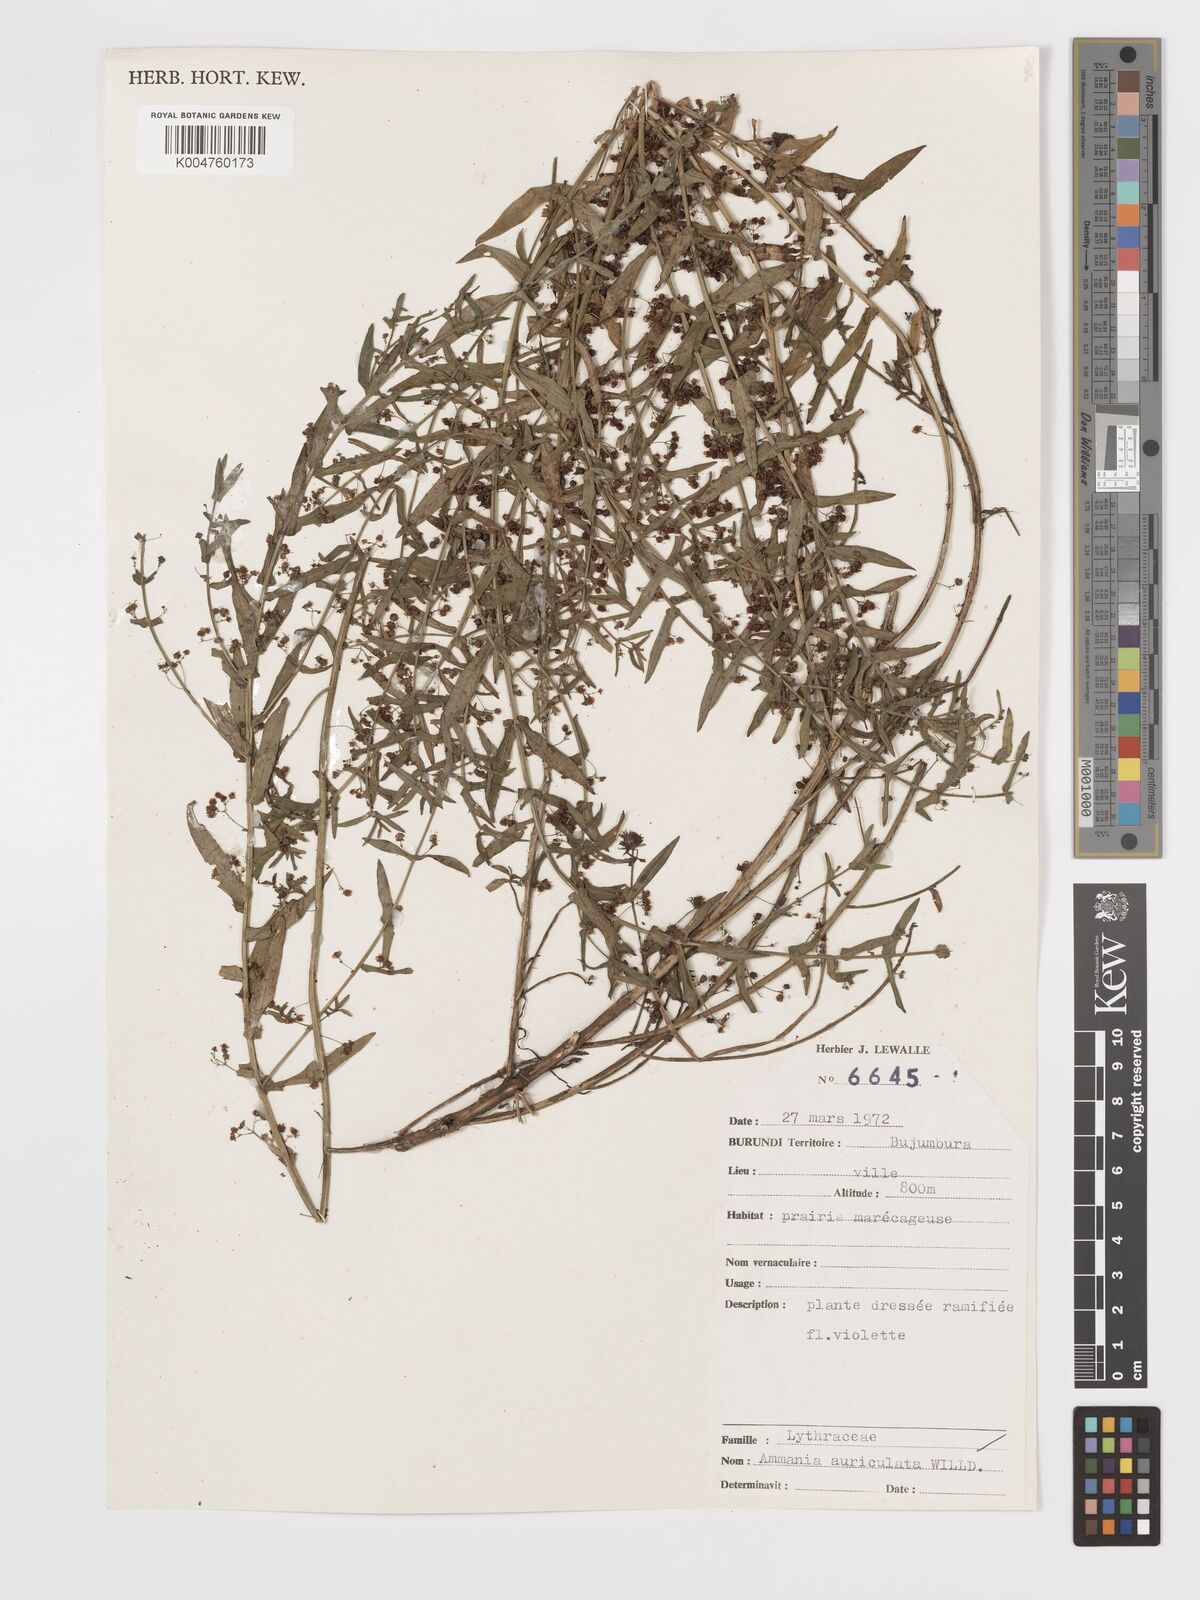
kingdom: Plantae
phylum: Tracheophyta
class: Magnoliopsida
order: Myrtales
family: Lythraceae
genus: Ammannia
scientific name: Ammannia auriculata
